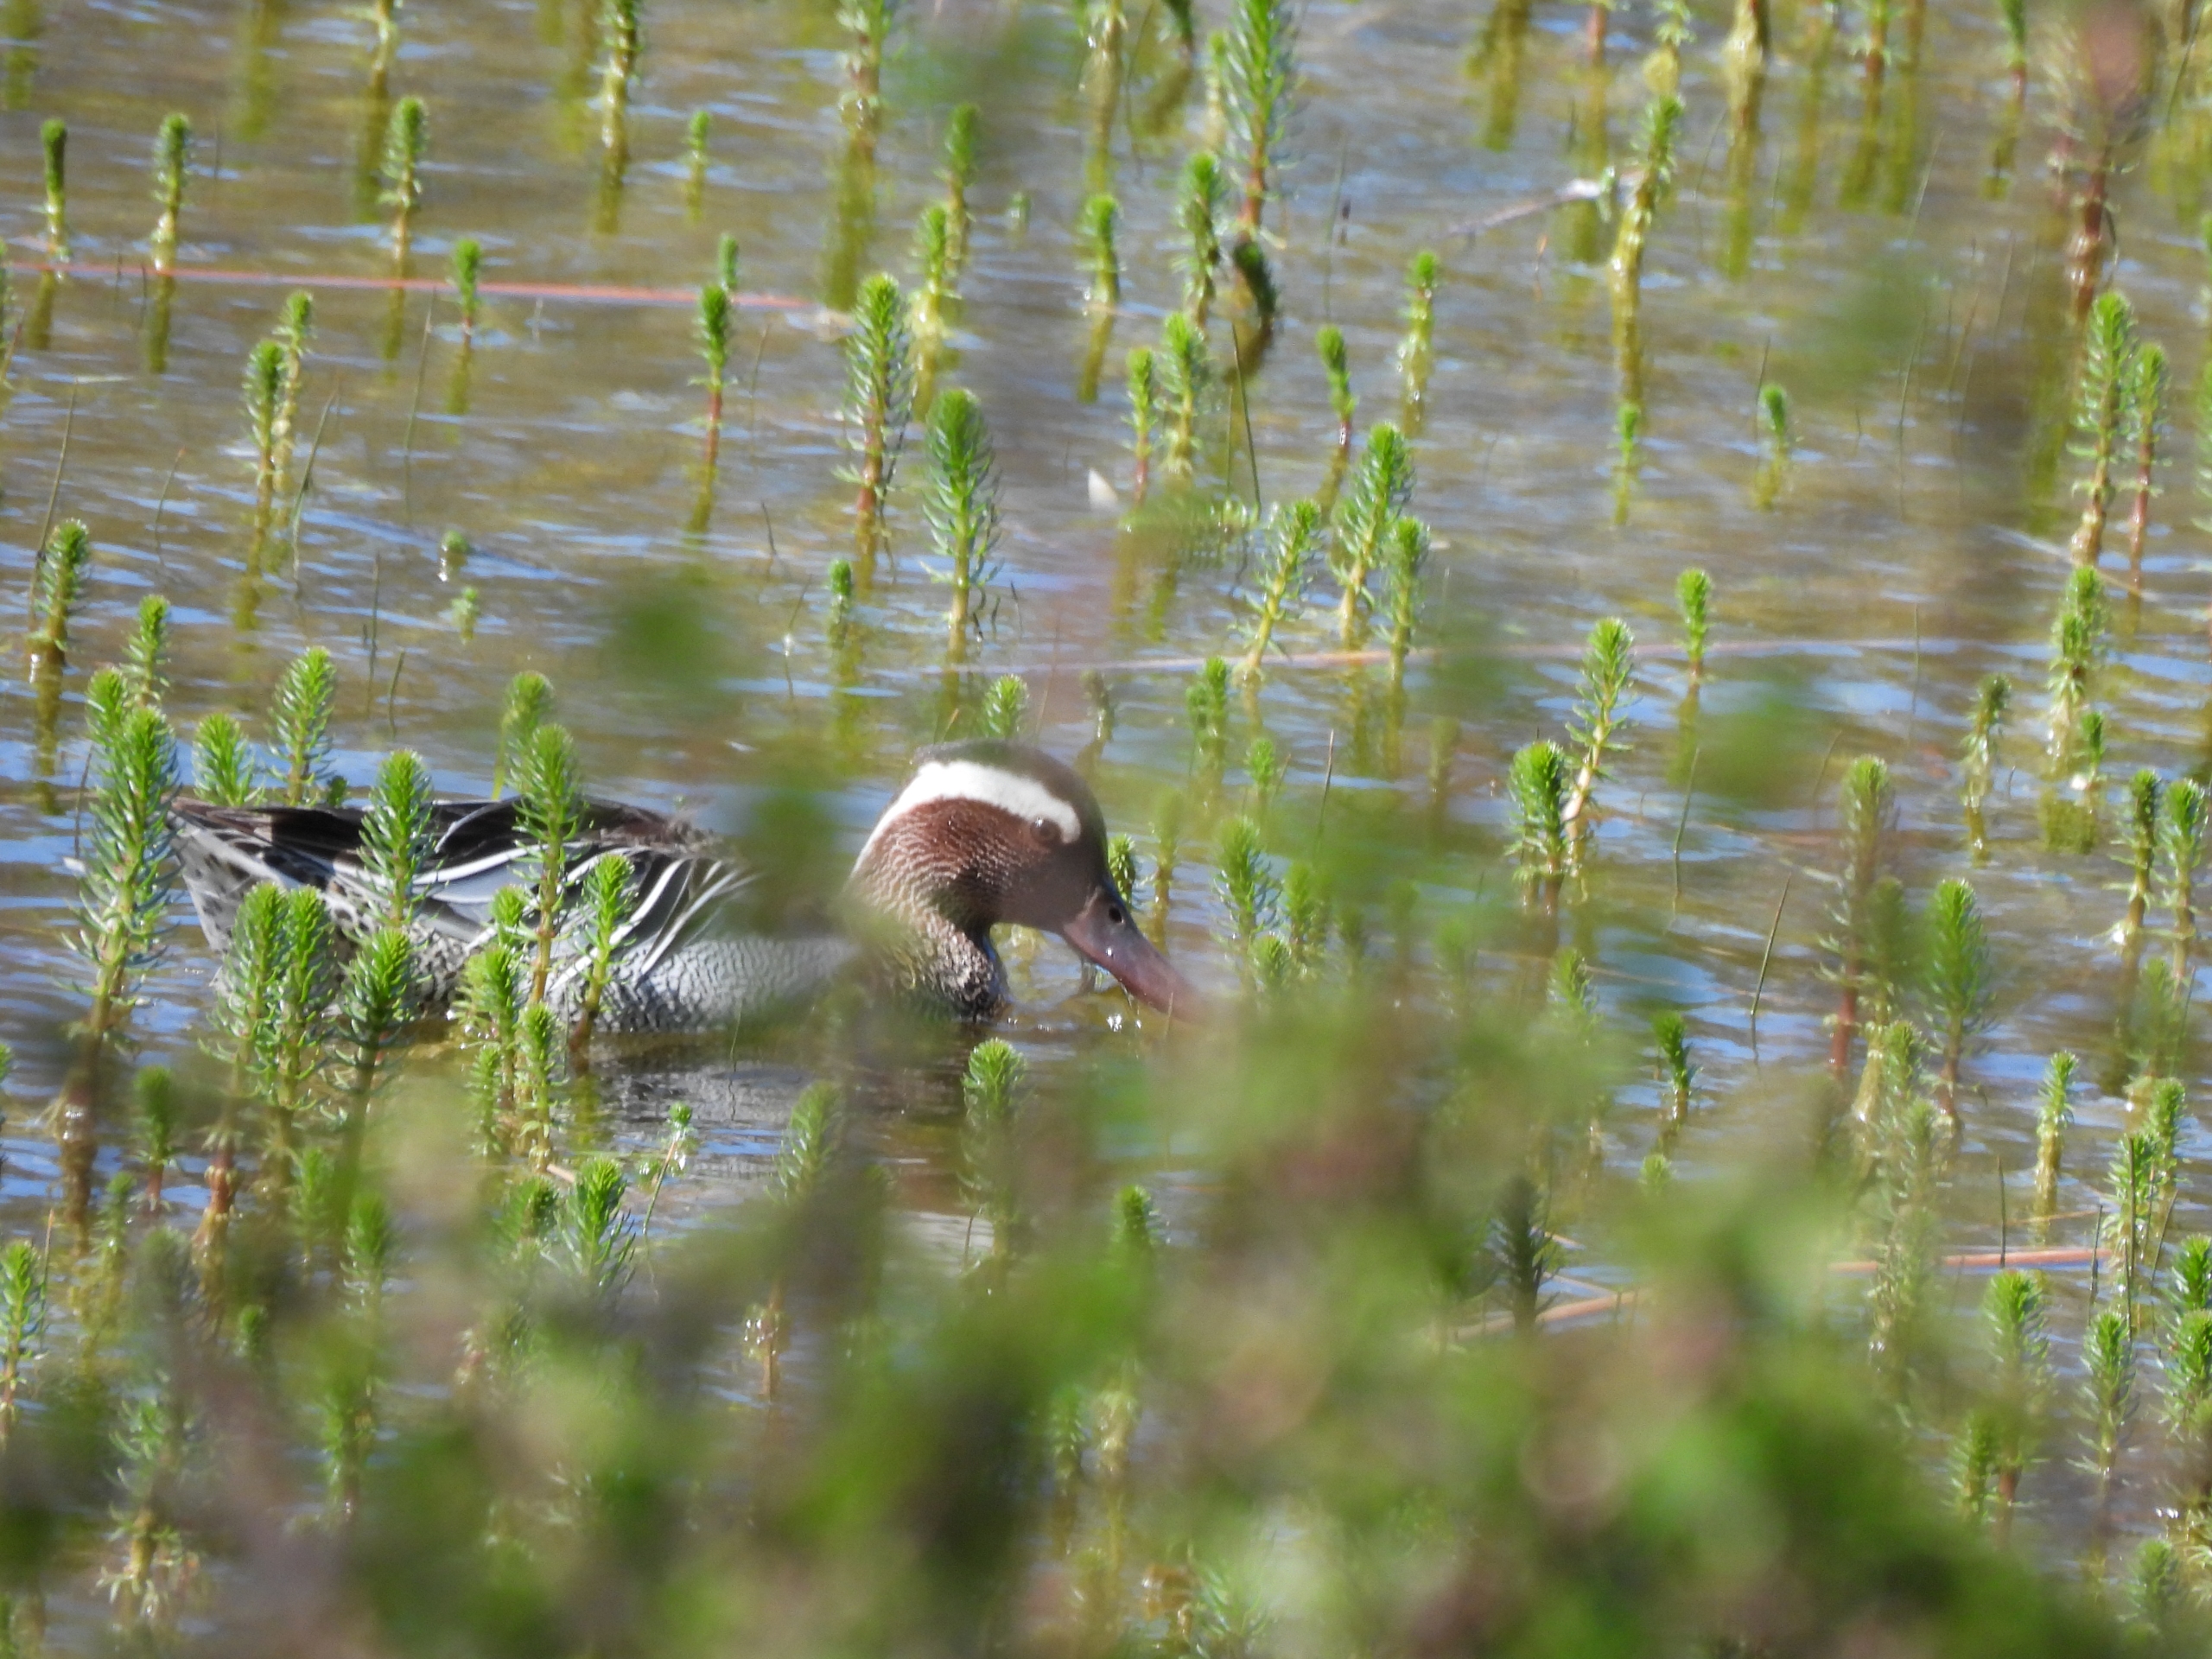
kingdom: Animalia
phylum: Chordata
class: Aves
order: Anseriformes
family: Anatidae
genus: Spatula
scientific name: Spatula querquedula
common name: Atlingand
